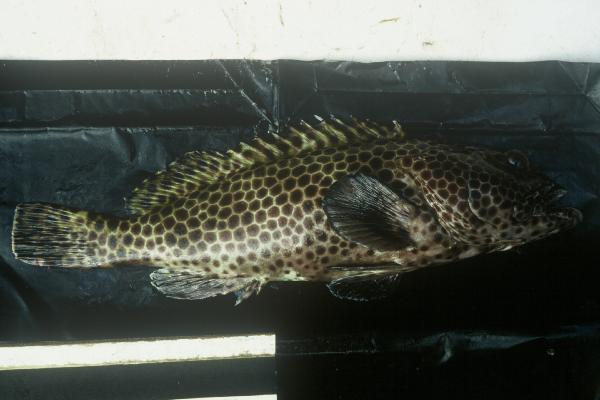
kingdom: Animalia
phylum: Chordata
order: Perciformes
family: Serranidae
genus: Epinephelus
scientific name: Epinephelus macrospilos
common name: Snubnose grouper
